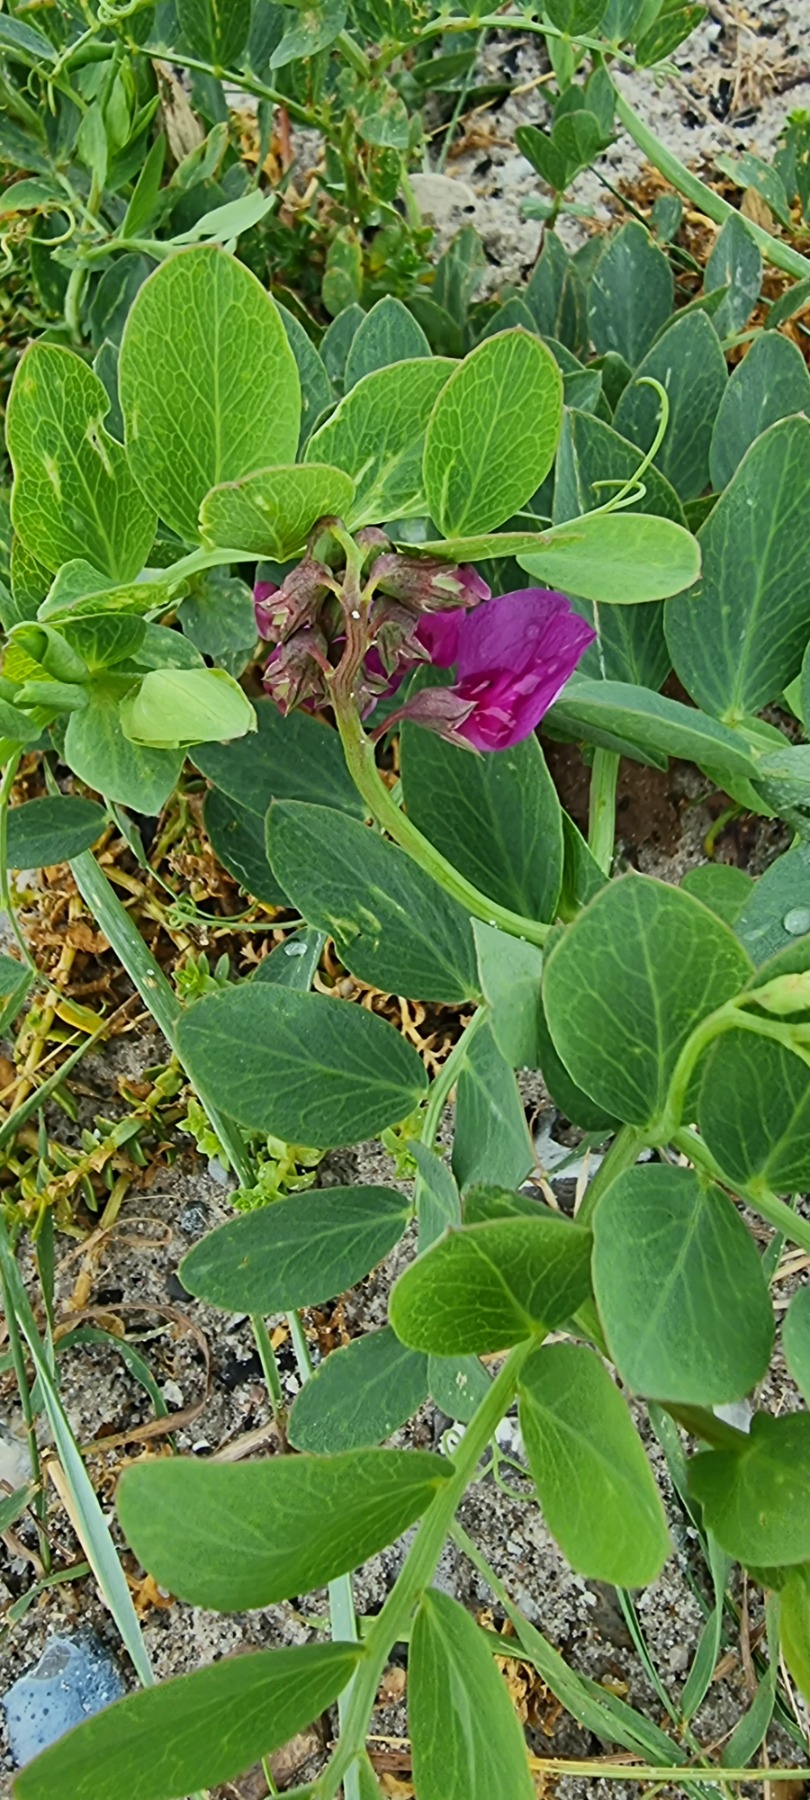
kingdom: Plantae
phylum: Tracheophyta
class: Magnoliopsida
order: Fabales
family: Fabaceae
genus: Lathyrus
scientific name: Lathyrus japonicus
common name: Strand-fladbælg
